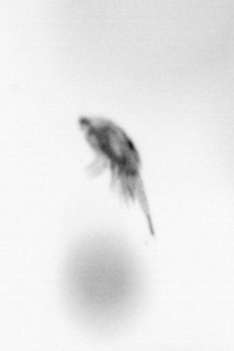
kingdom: Animalia
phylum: Arthropoda
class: Copepoda
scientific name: Copepoda
